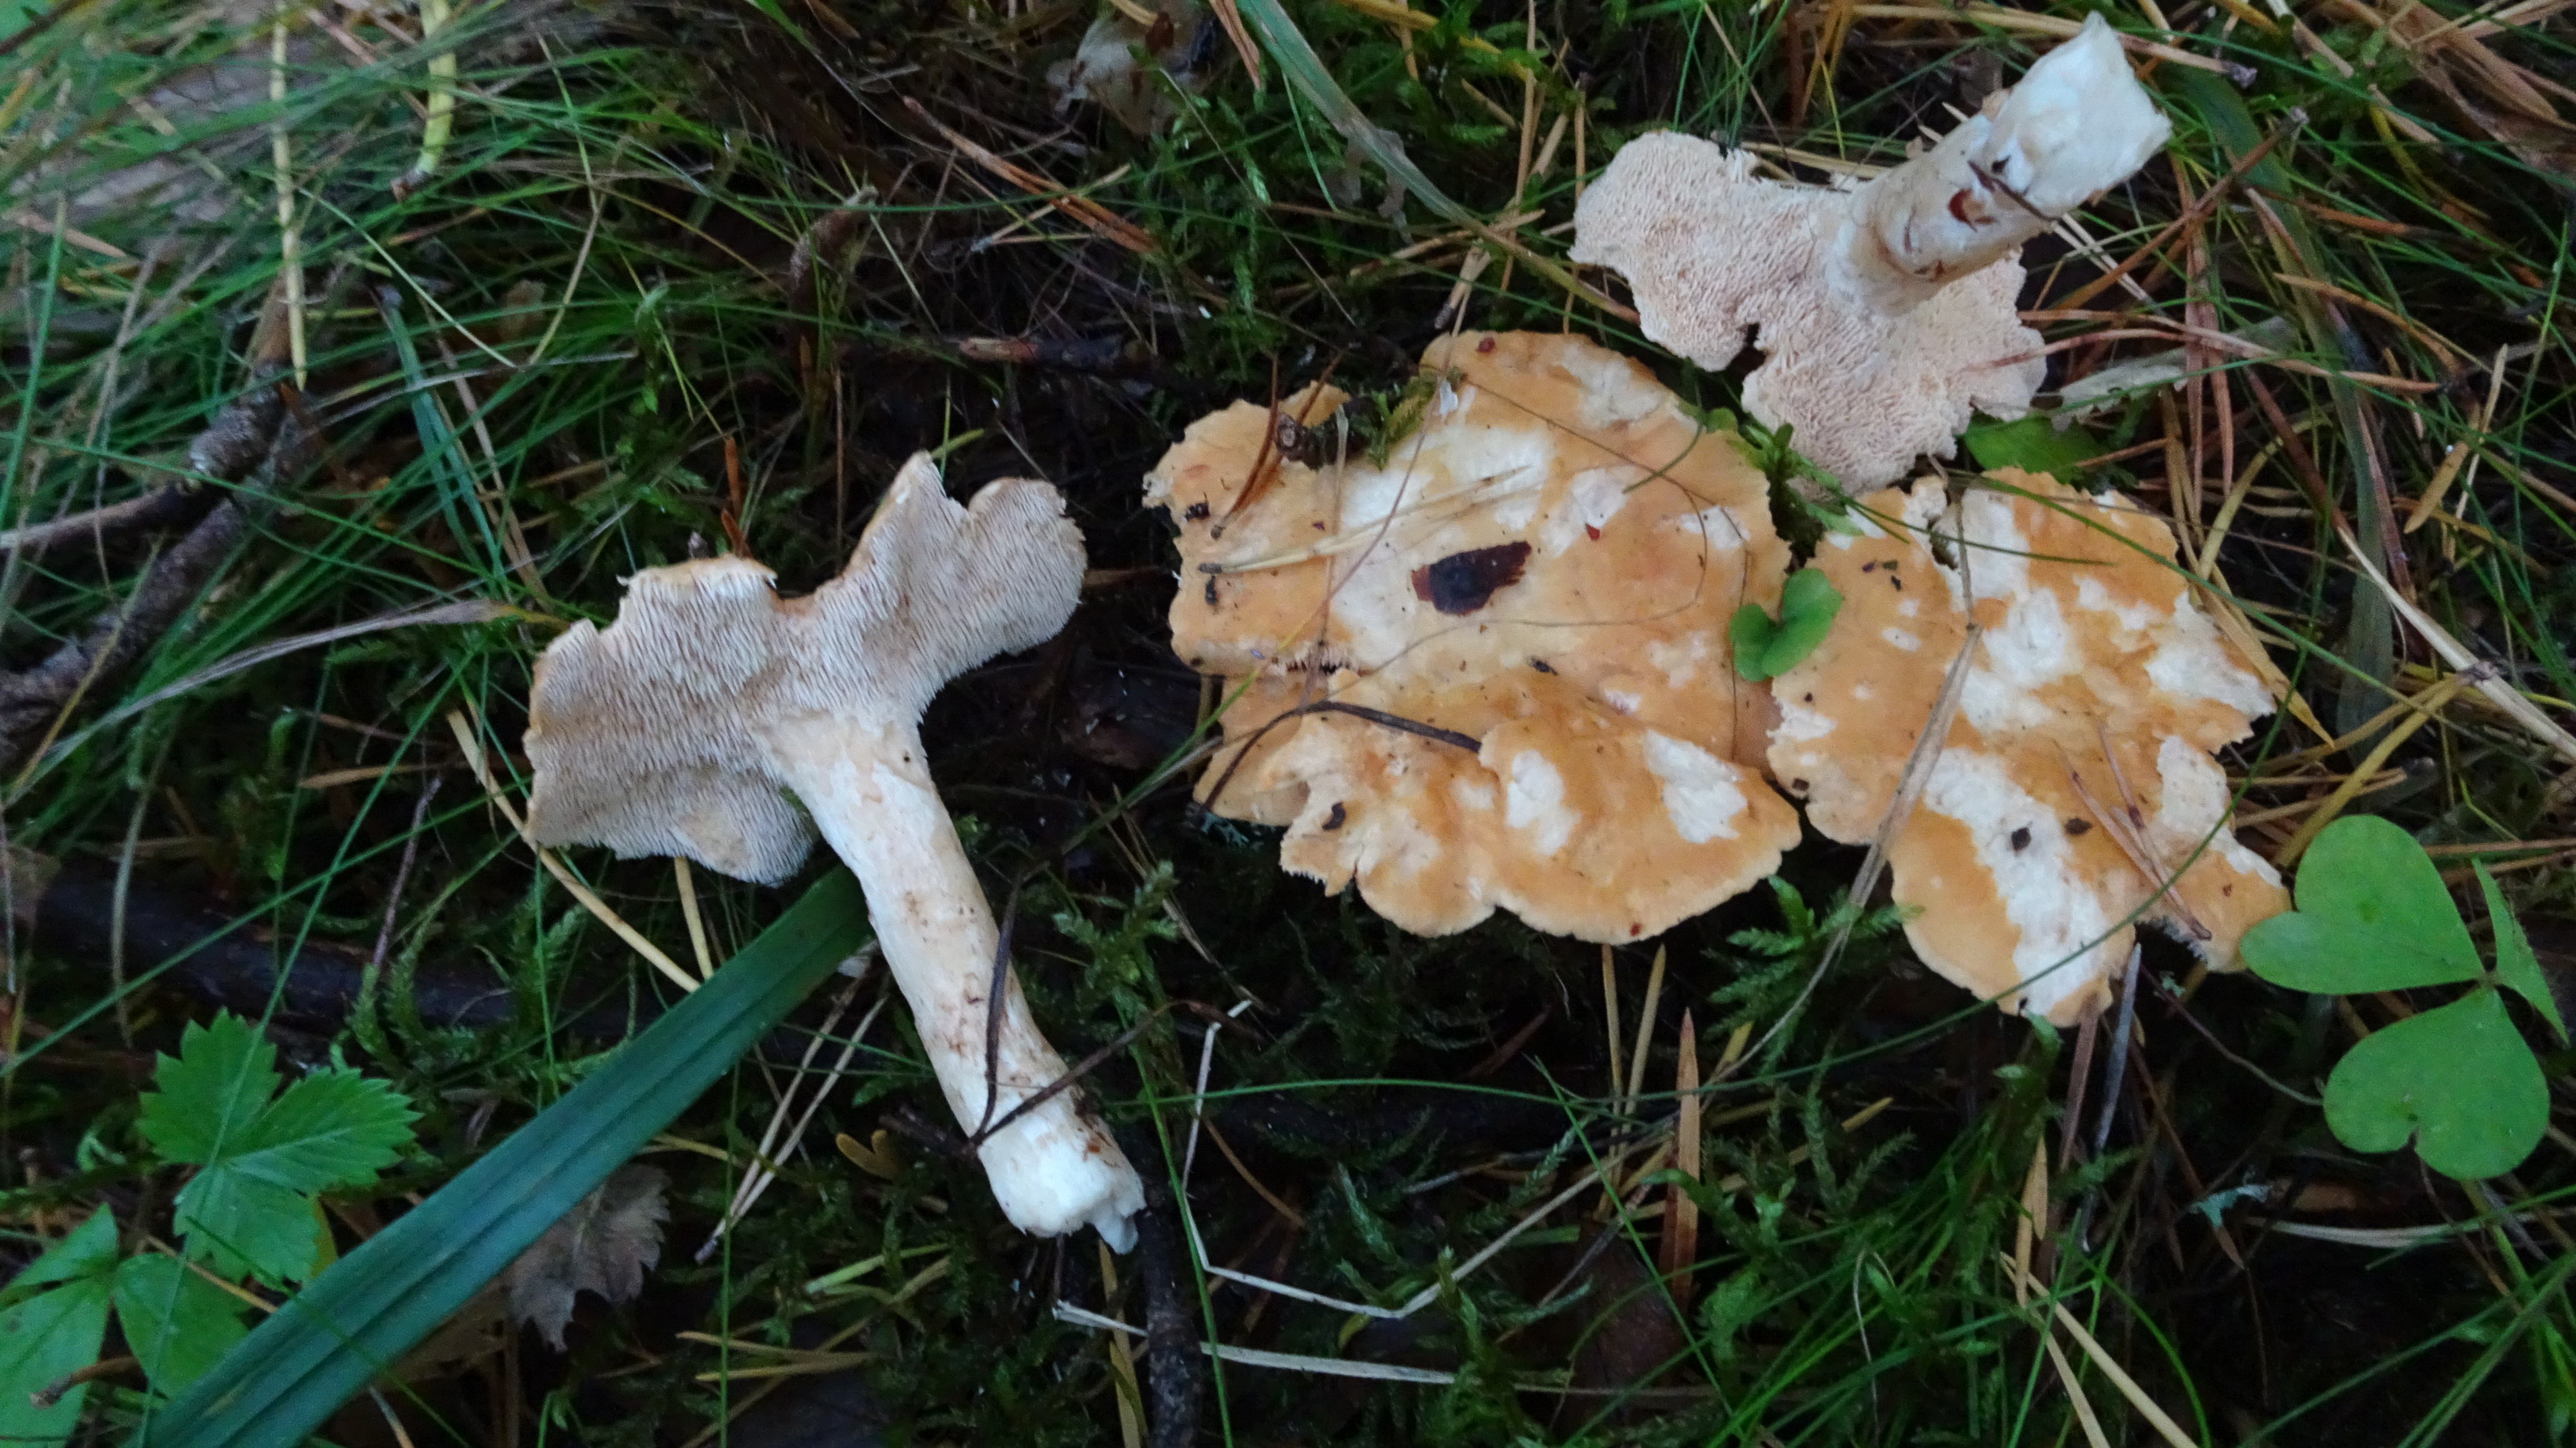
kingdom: Fungi
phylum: Basidiomycota
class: Agaricomycetes
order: Cantharellales
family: Hydnaceae
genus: Hydnum
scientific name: Hydnum rufescens
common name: Terracotta hedgehog
